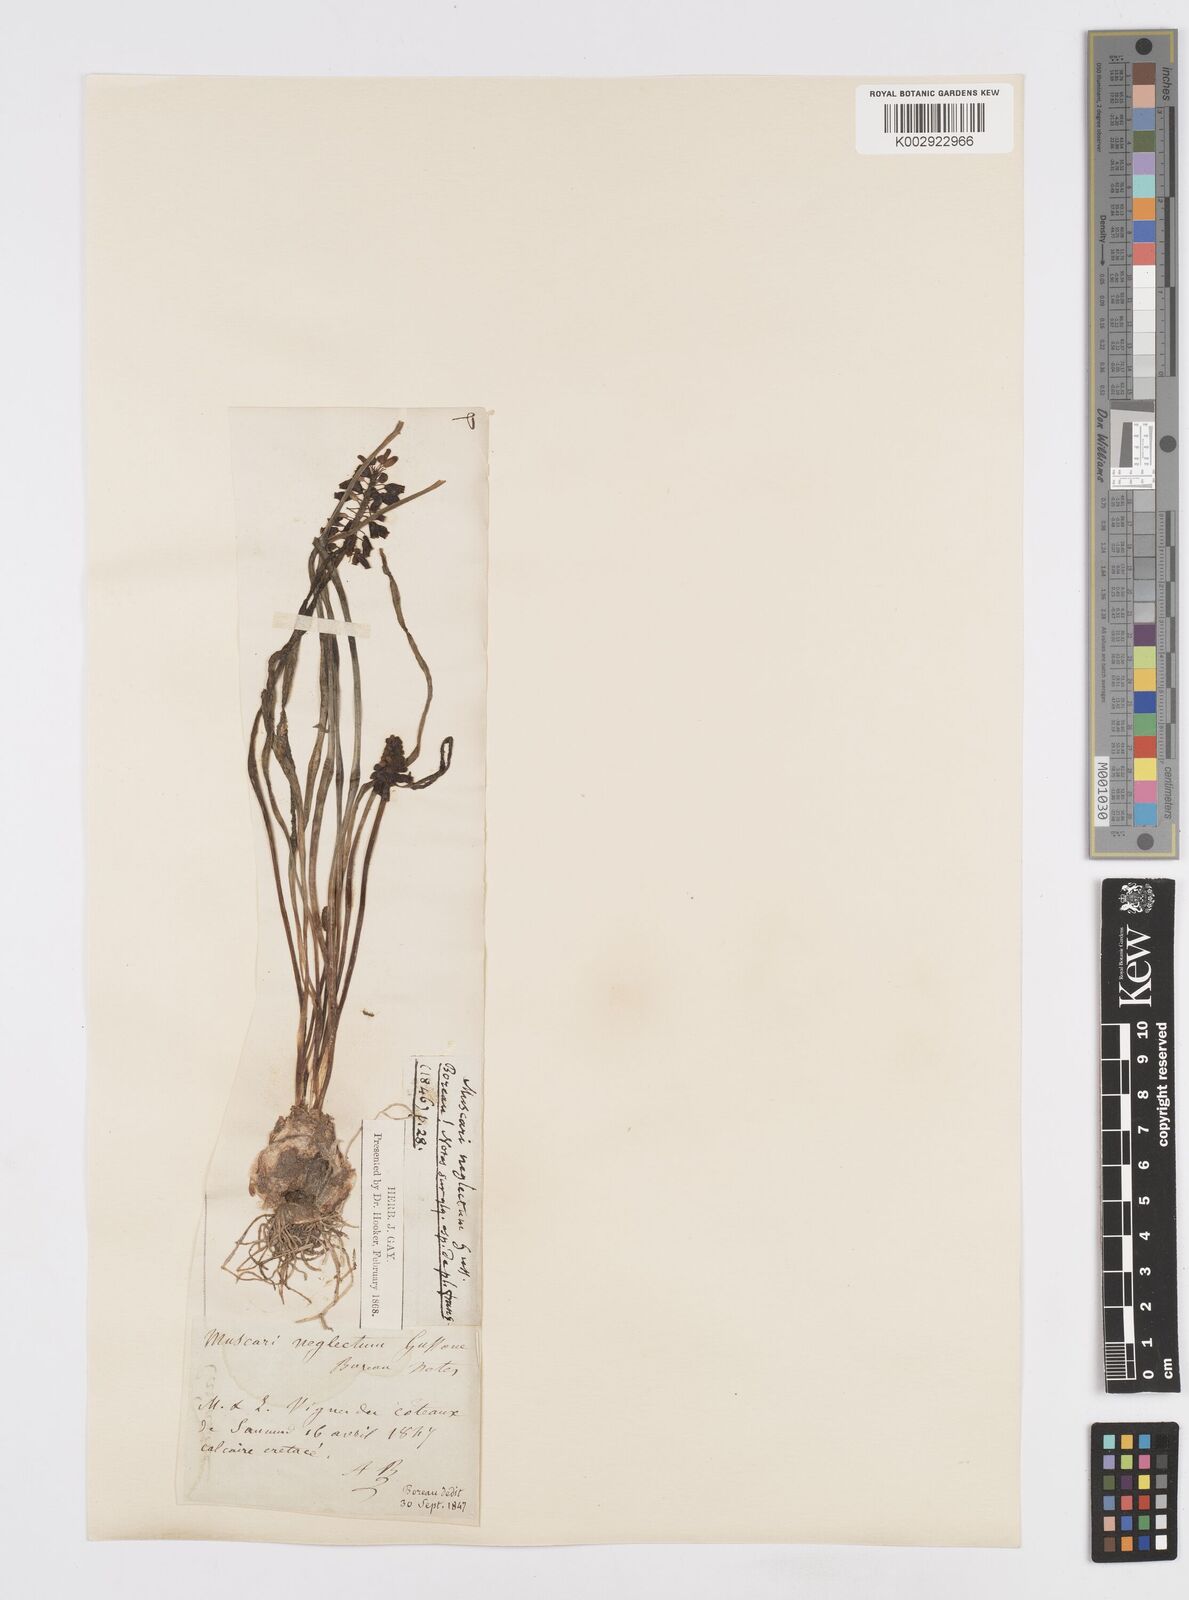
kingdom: Plantae
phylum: Tracheophyta
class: Liliopsida
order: Asparagales
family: Asparagaceae
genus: Muscari
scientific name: Muscari neglectum
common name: Grape-hyacinth
